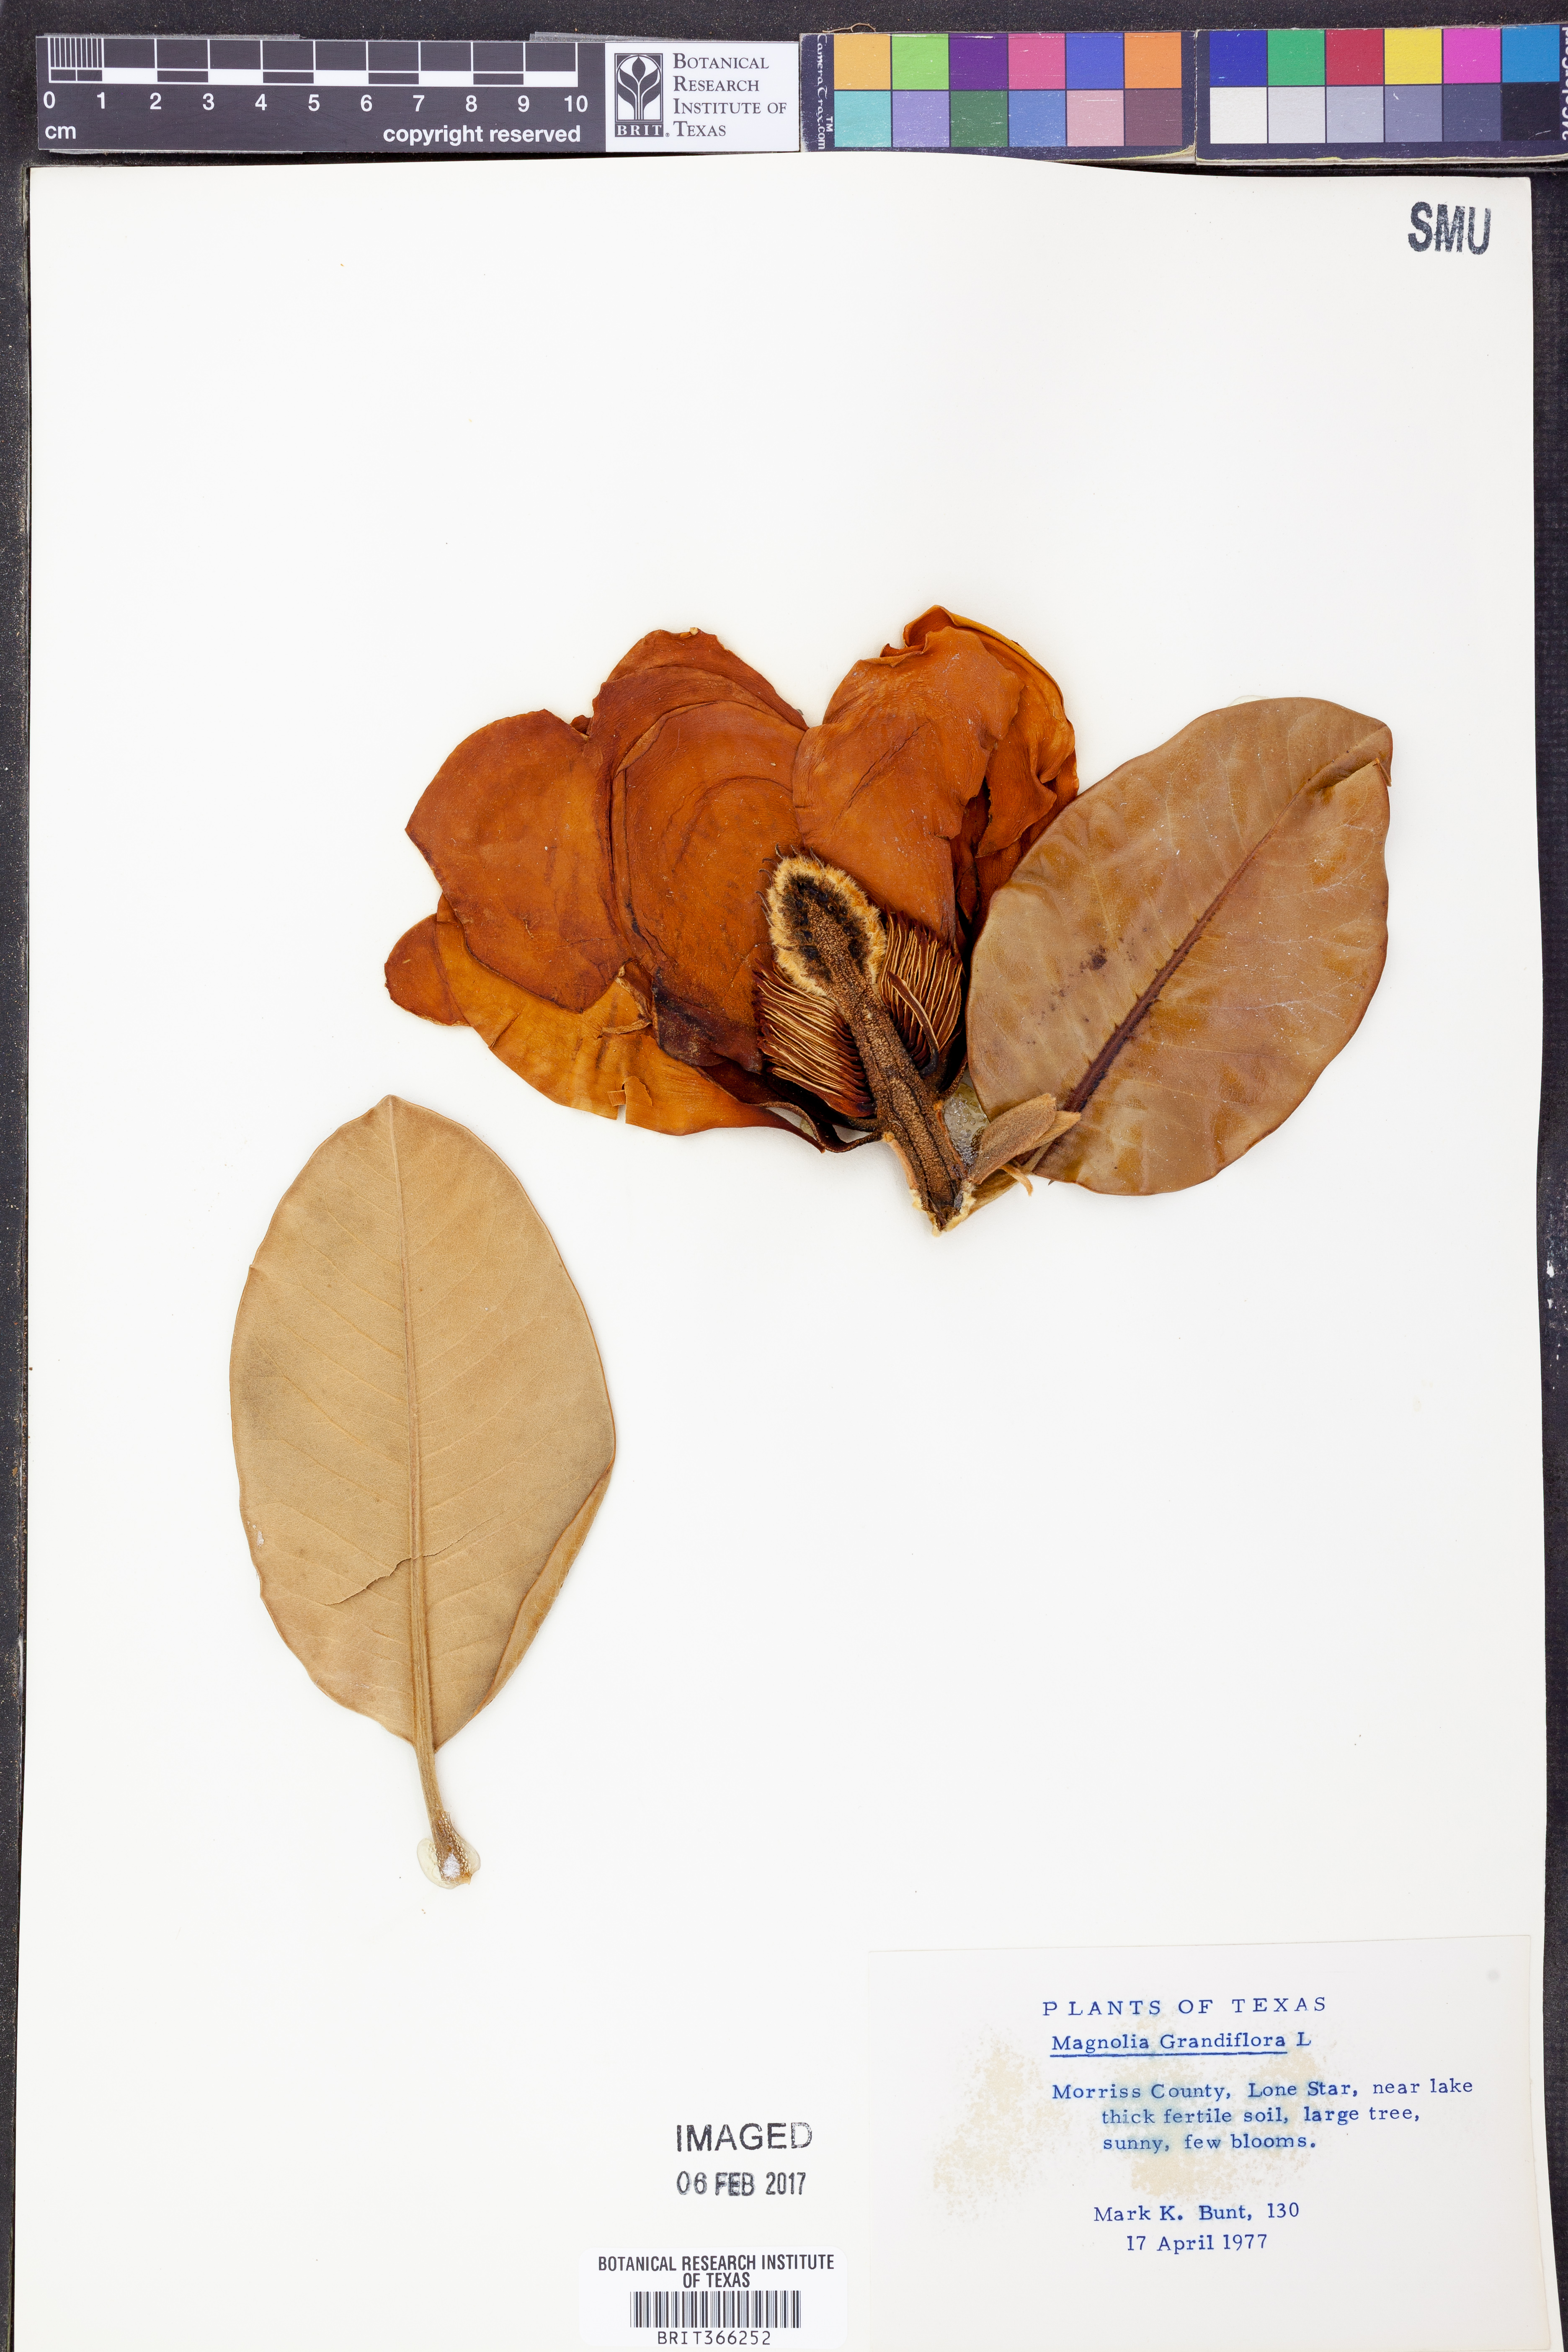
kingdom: Plantae
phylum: Tracheophyta
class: Magnoliopsida
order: Magnoliales
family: Magnoliaceae
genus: Magnolia
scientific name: Magnolia grandiflora
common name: Southern magnolia
